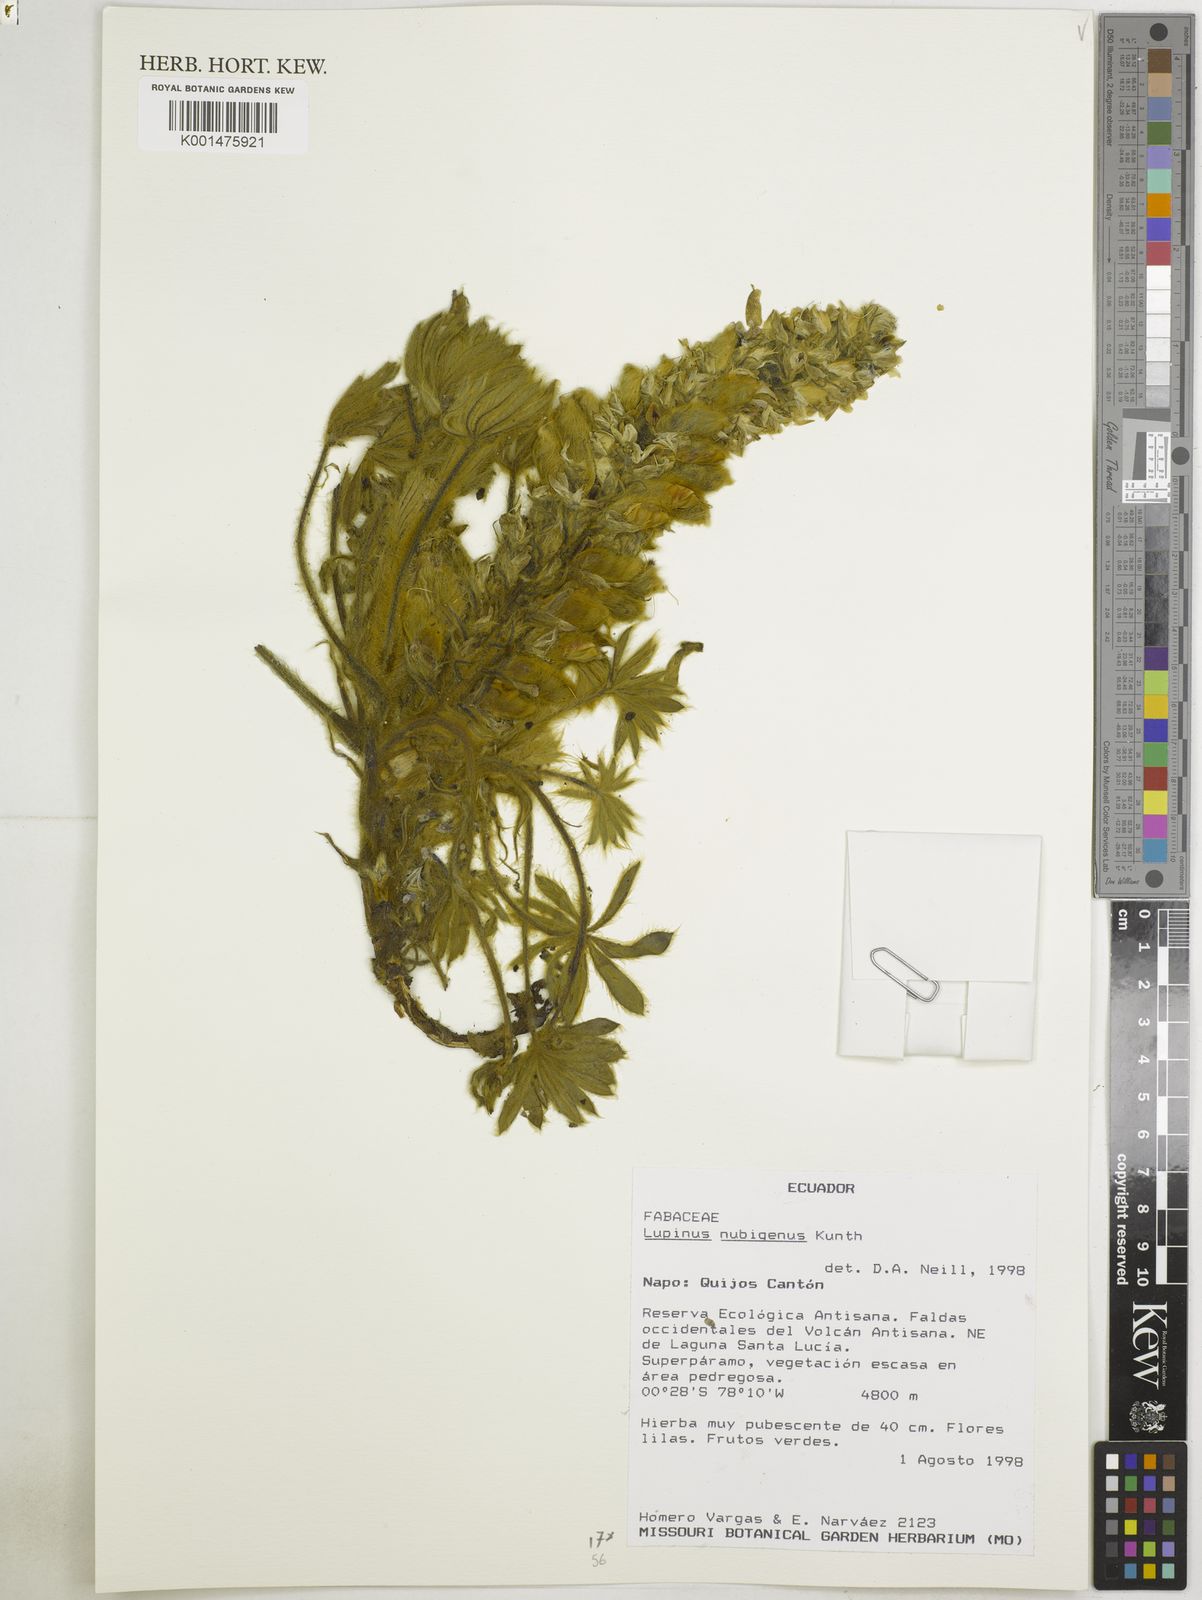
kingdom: Plantae
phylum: Tracheophyta
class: Magnoliopsida
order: Fabales
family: Fabaceae
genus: Lupinus
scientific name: Lupinus nubigenus
